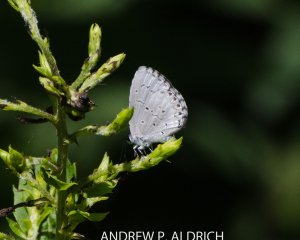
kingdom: Animalia
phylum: Arthropoda
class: Insecta
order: Lepidoptera
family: Lycaenidae
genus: Celastrina
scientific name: Celastrina lucia
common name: Northern Spring Azure
